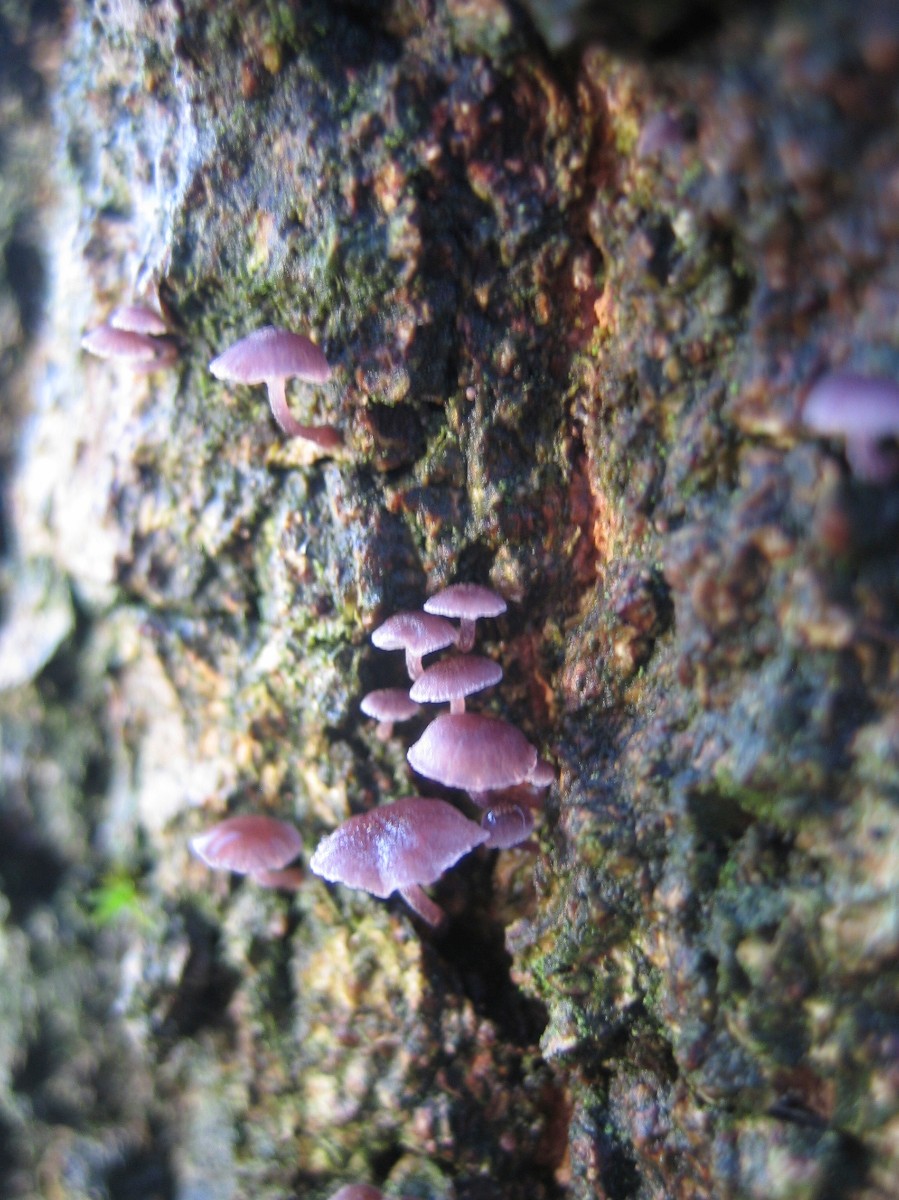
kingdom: Fungi
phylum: Basidiomycota
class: Agaricomycetes
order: Agaricales
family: Mycenaceae
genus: Mycena
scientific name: Mycena meliigena
